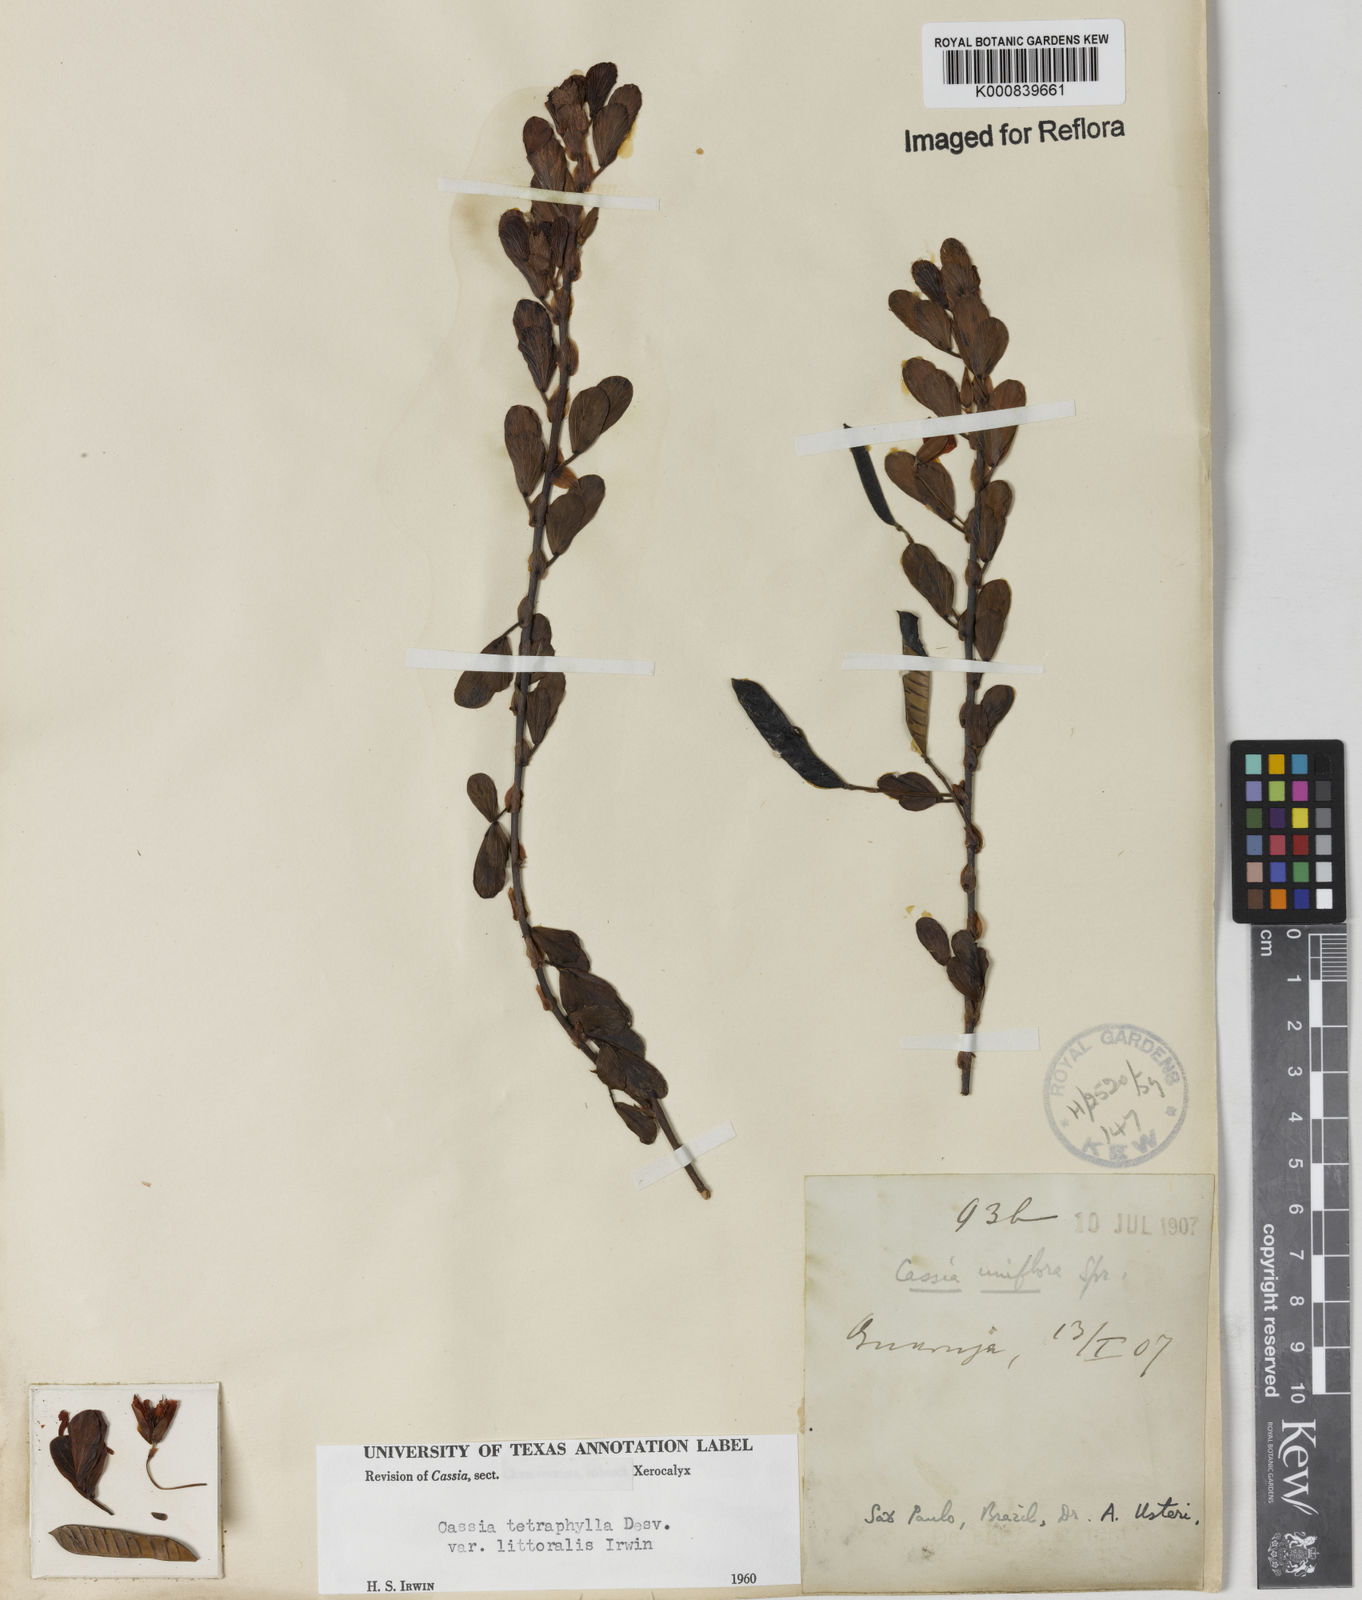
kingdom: Plantae
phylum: Tracheophyta
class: Magnoliopsida
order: Fabales
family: Fabaceae
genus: Chamaecrista
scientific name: Chamaecrista desvauxii
